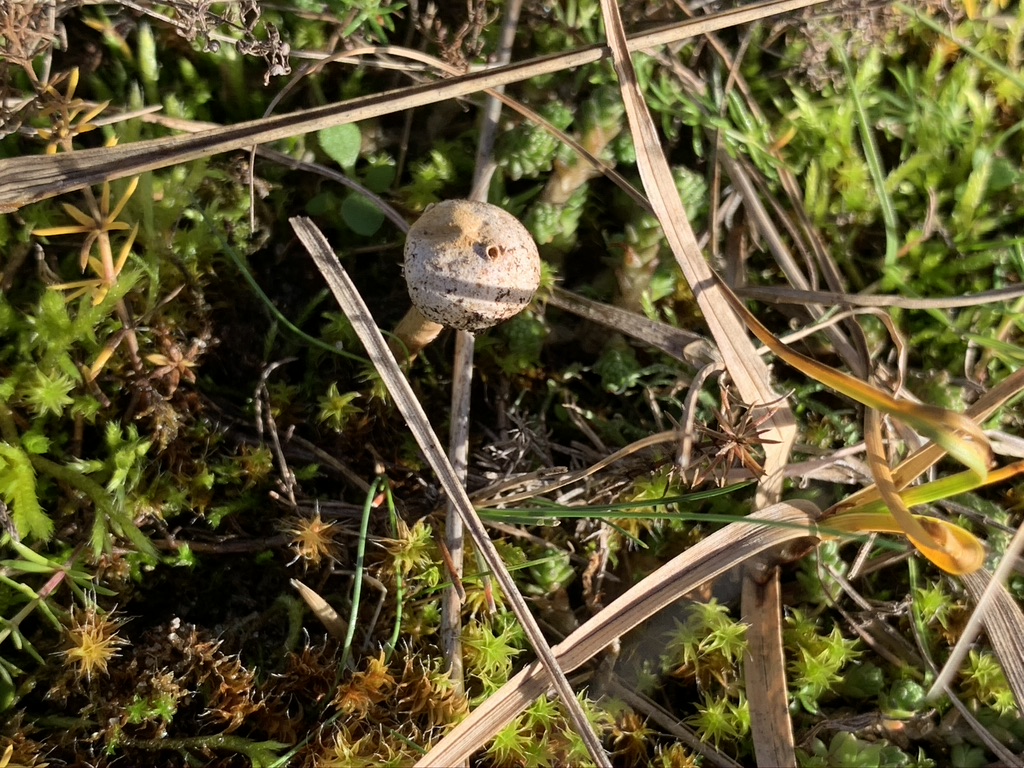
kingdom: Fungi
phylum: Basidiomycota
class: Agaricomycetes
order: Agaricales
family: Agaricaceae
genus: Tulostoma
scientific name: Tulostoma brumale
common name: vinter-stilkbovist
